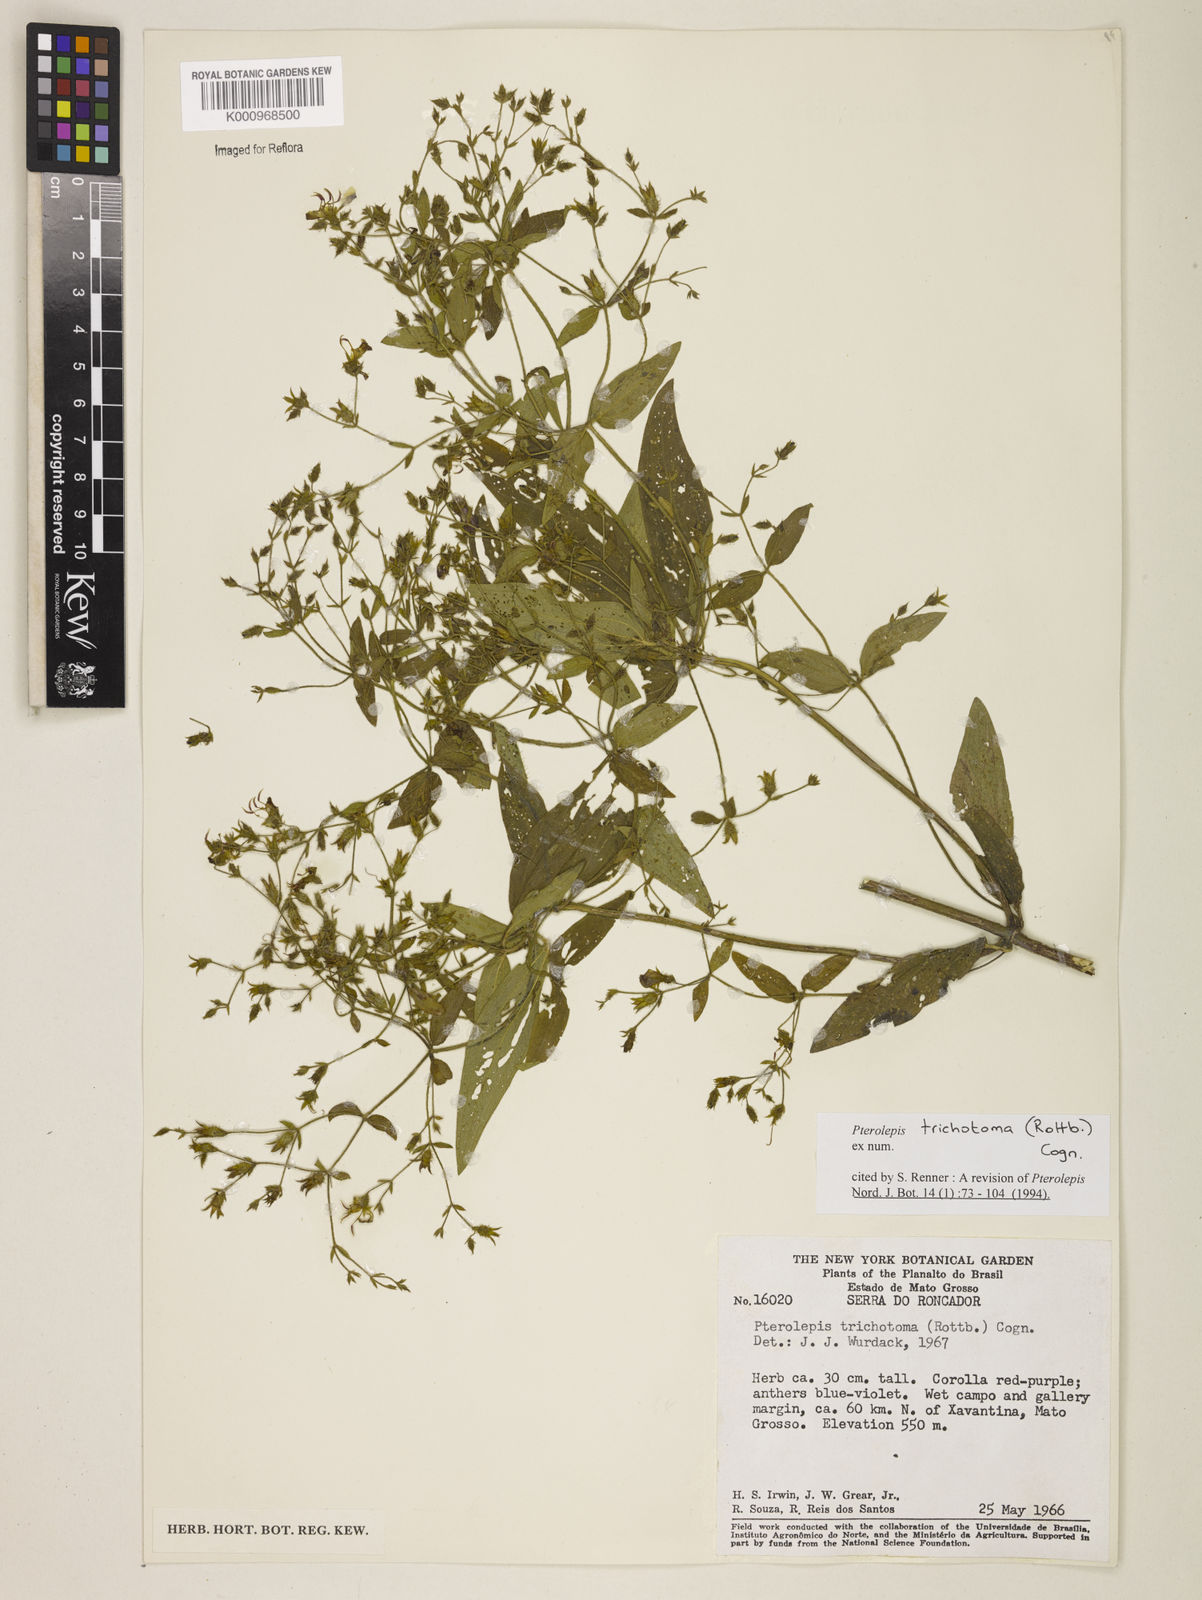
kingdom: Plantae
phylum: Tracheophyta
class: Magnoliopsida
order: Myrtales
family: Melastomataceae
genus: Pterolepis
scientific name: Pterolepis trichotoma
